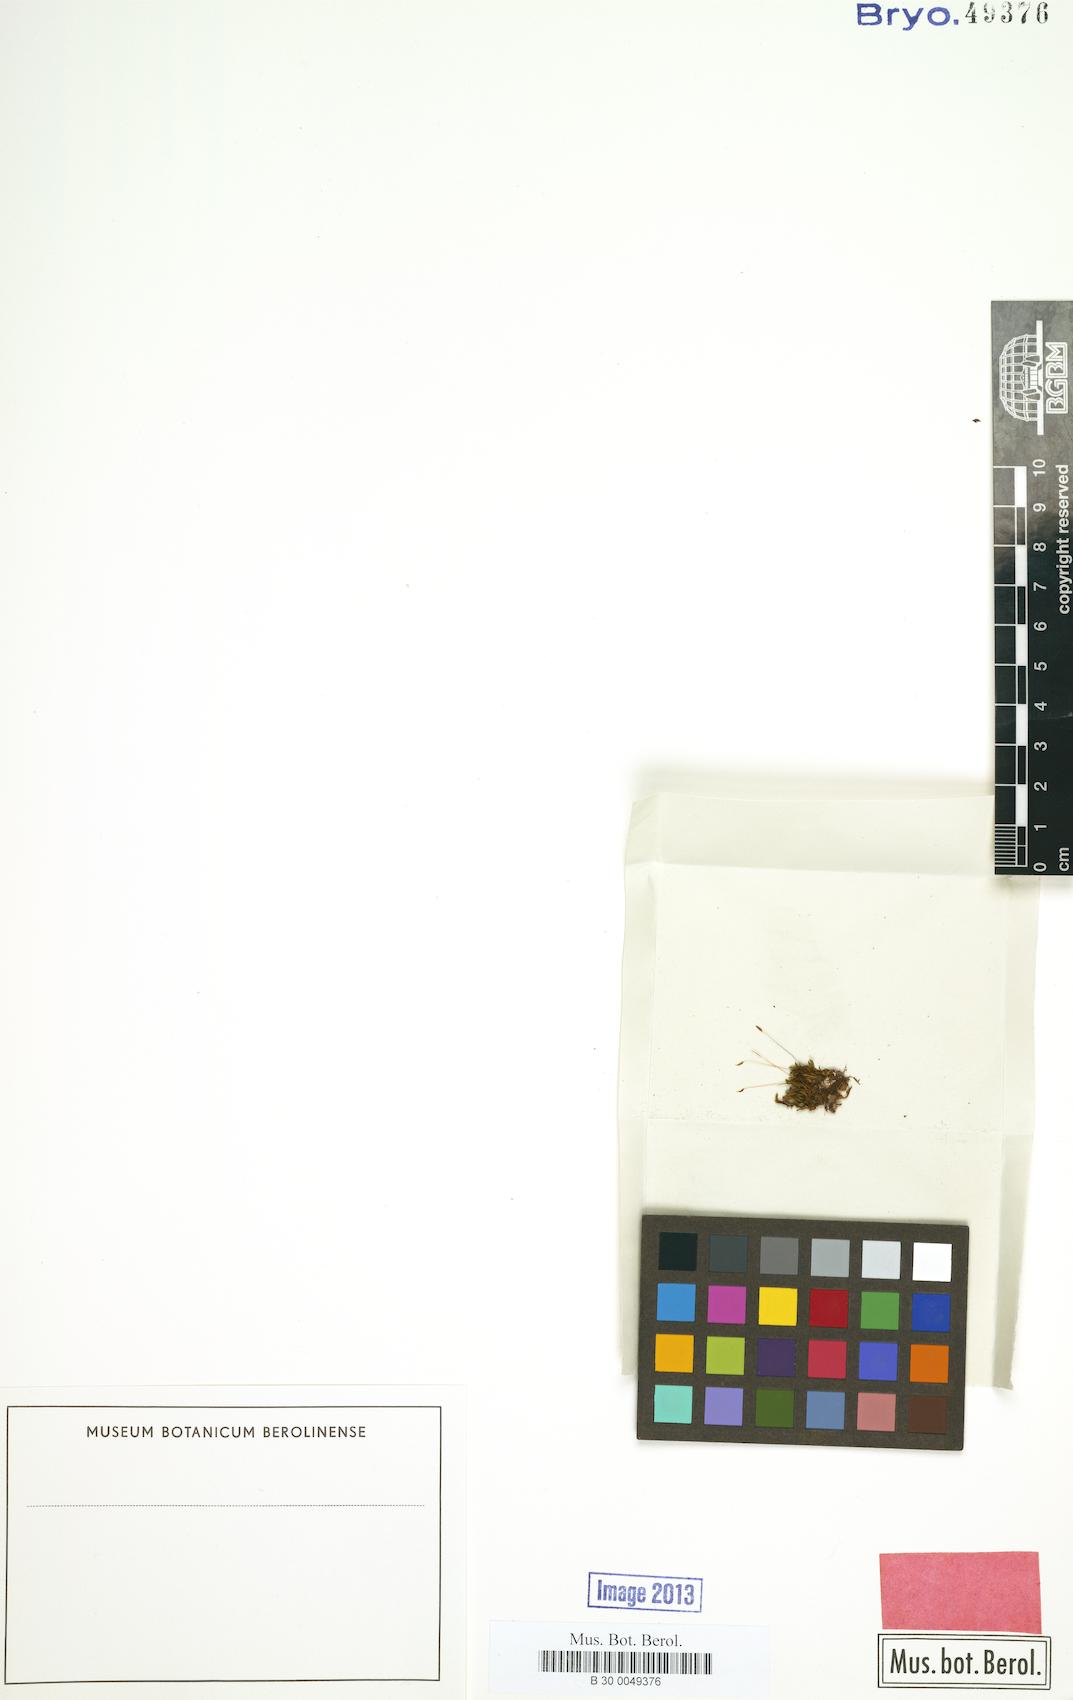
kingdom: Plantae
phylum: Bryophyta
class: Bryopsida
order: Pottiales
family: Pottiaceae
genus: Vinealobryum
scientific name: Vinealobryum vineale
